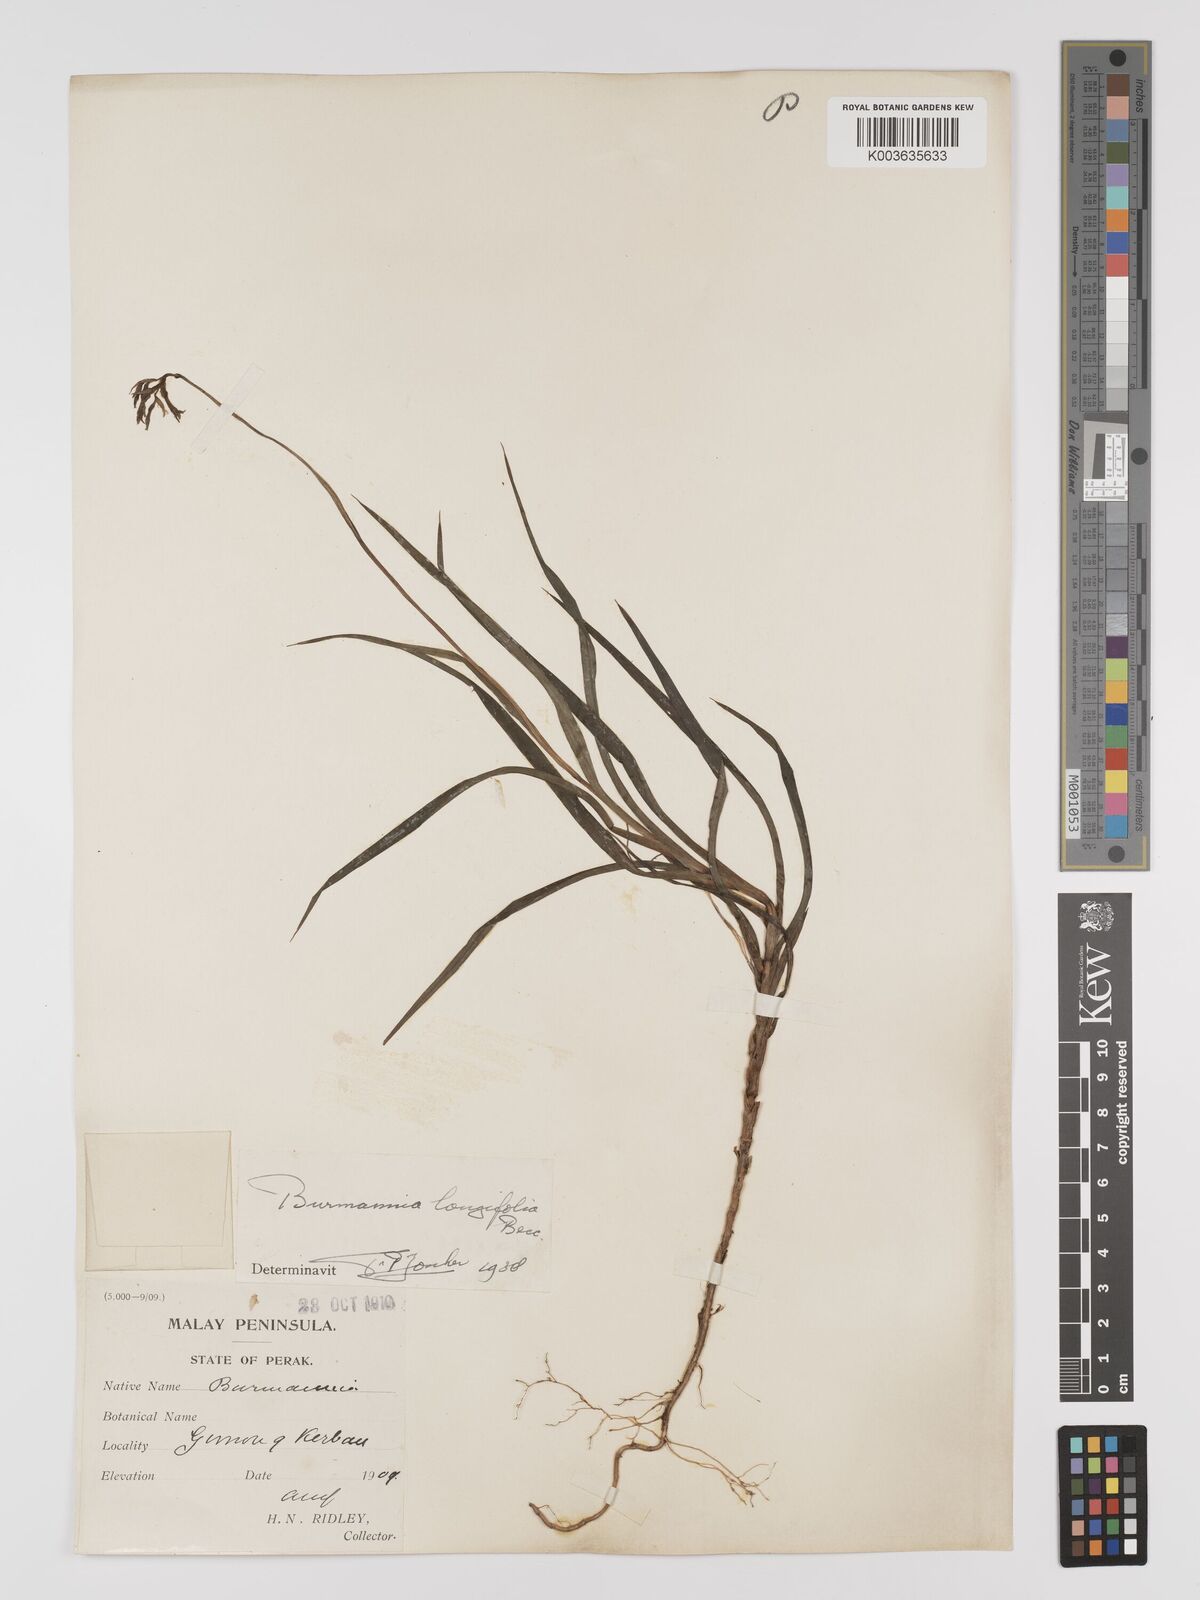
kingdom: Plantae
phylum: Tracheophyta
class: Liliopsida
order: Dioscoreales
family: Burmanniaceae
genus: Burmannia
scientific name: Burmannia longifolia
